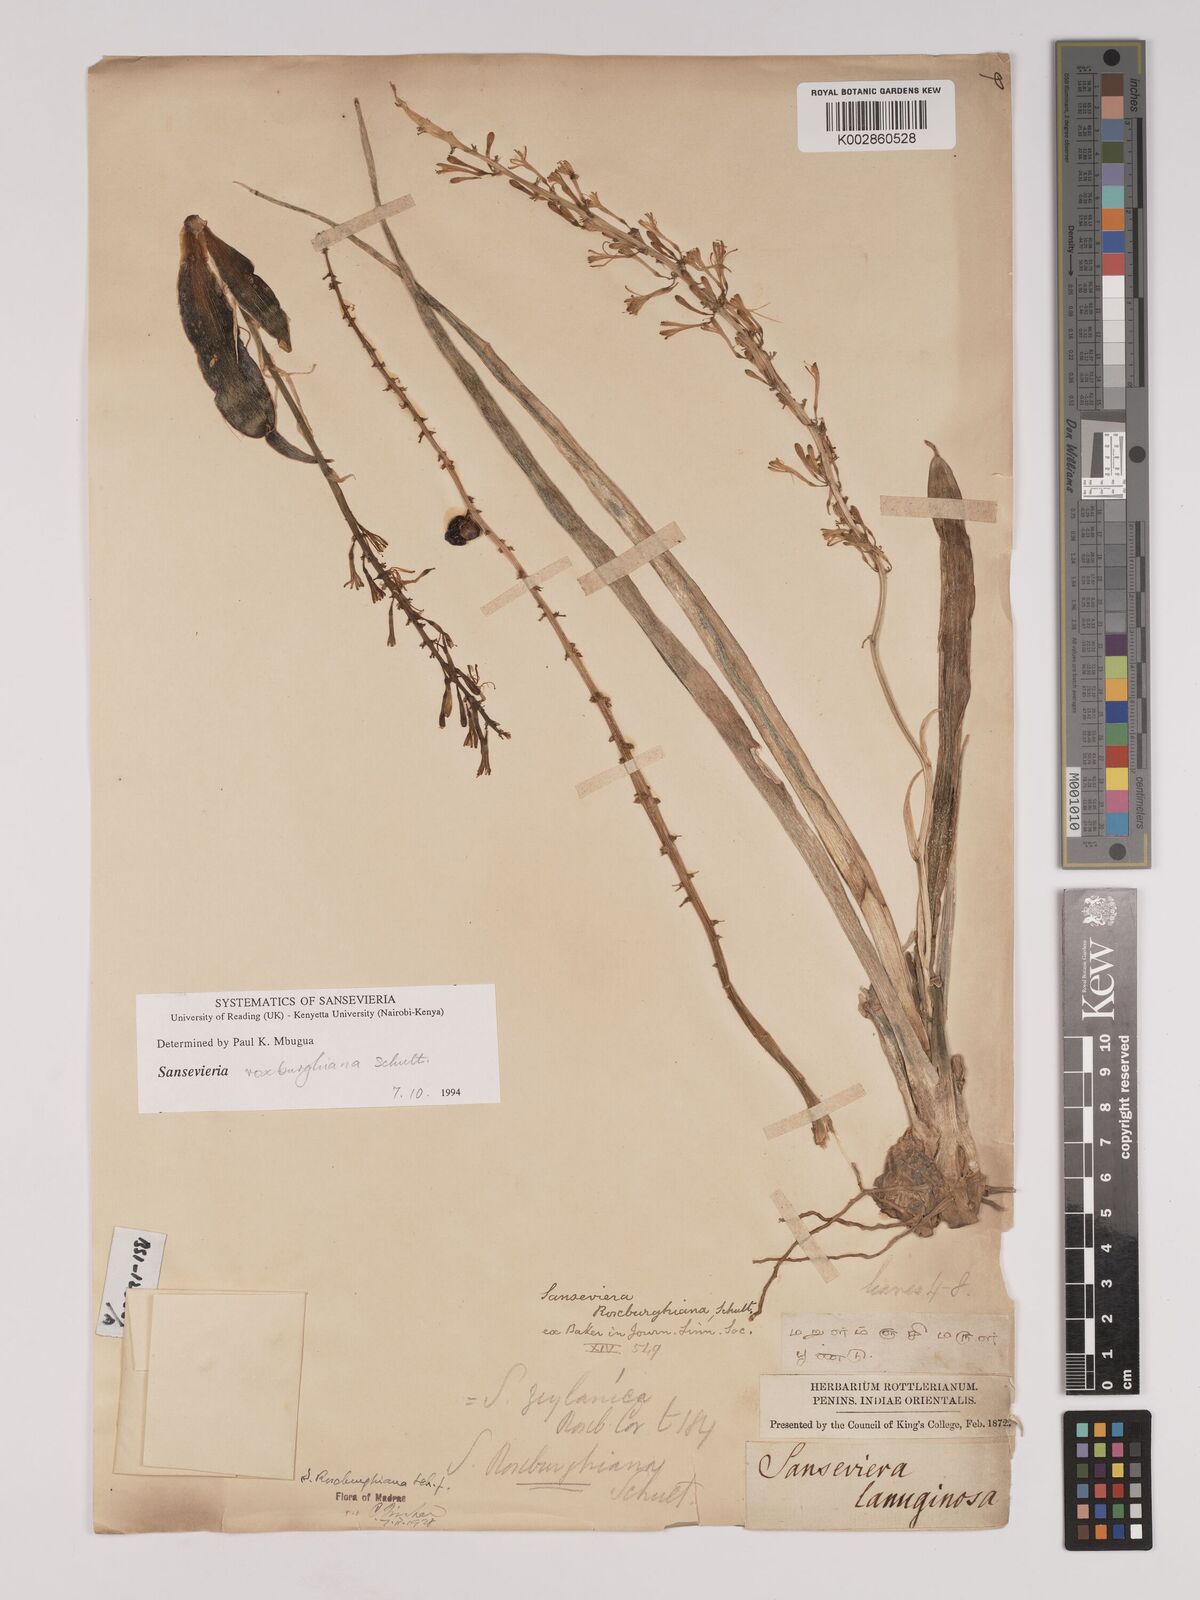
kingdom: Plantae
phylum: Tracheophyta
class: Liliopsida
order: Asparagales
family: Asparagaceae
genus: Dracaena
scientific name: Dracaena roxburghiana
